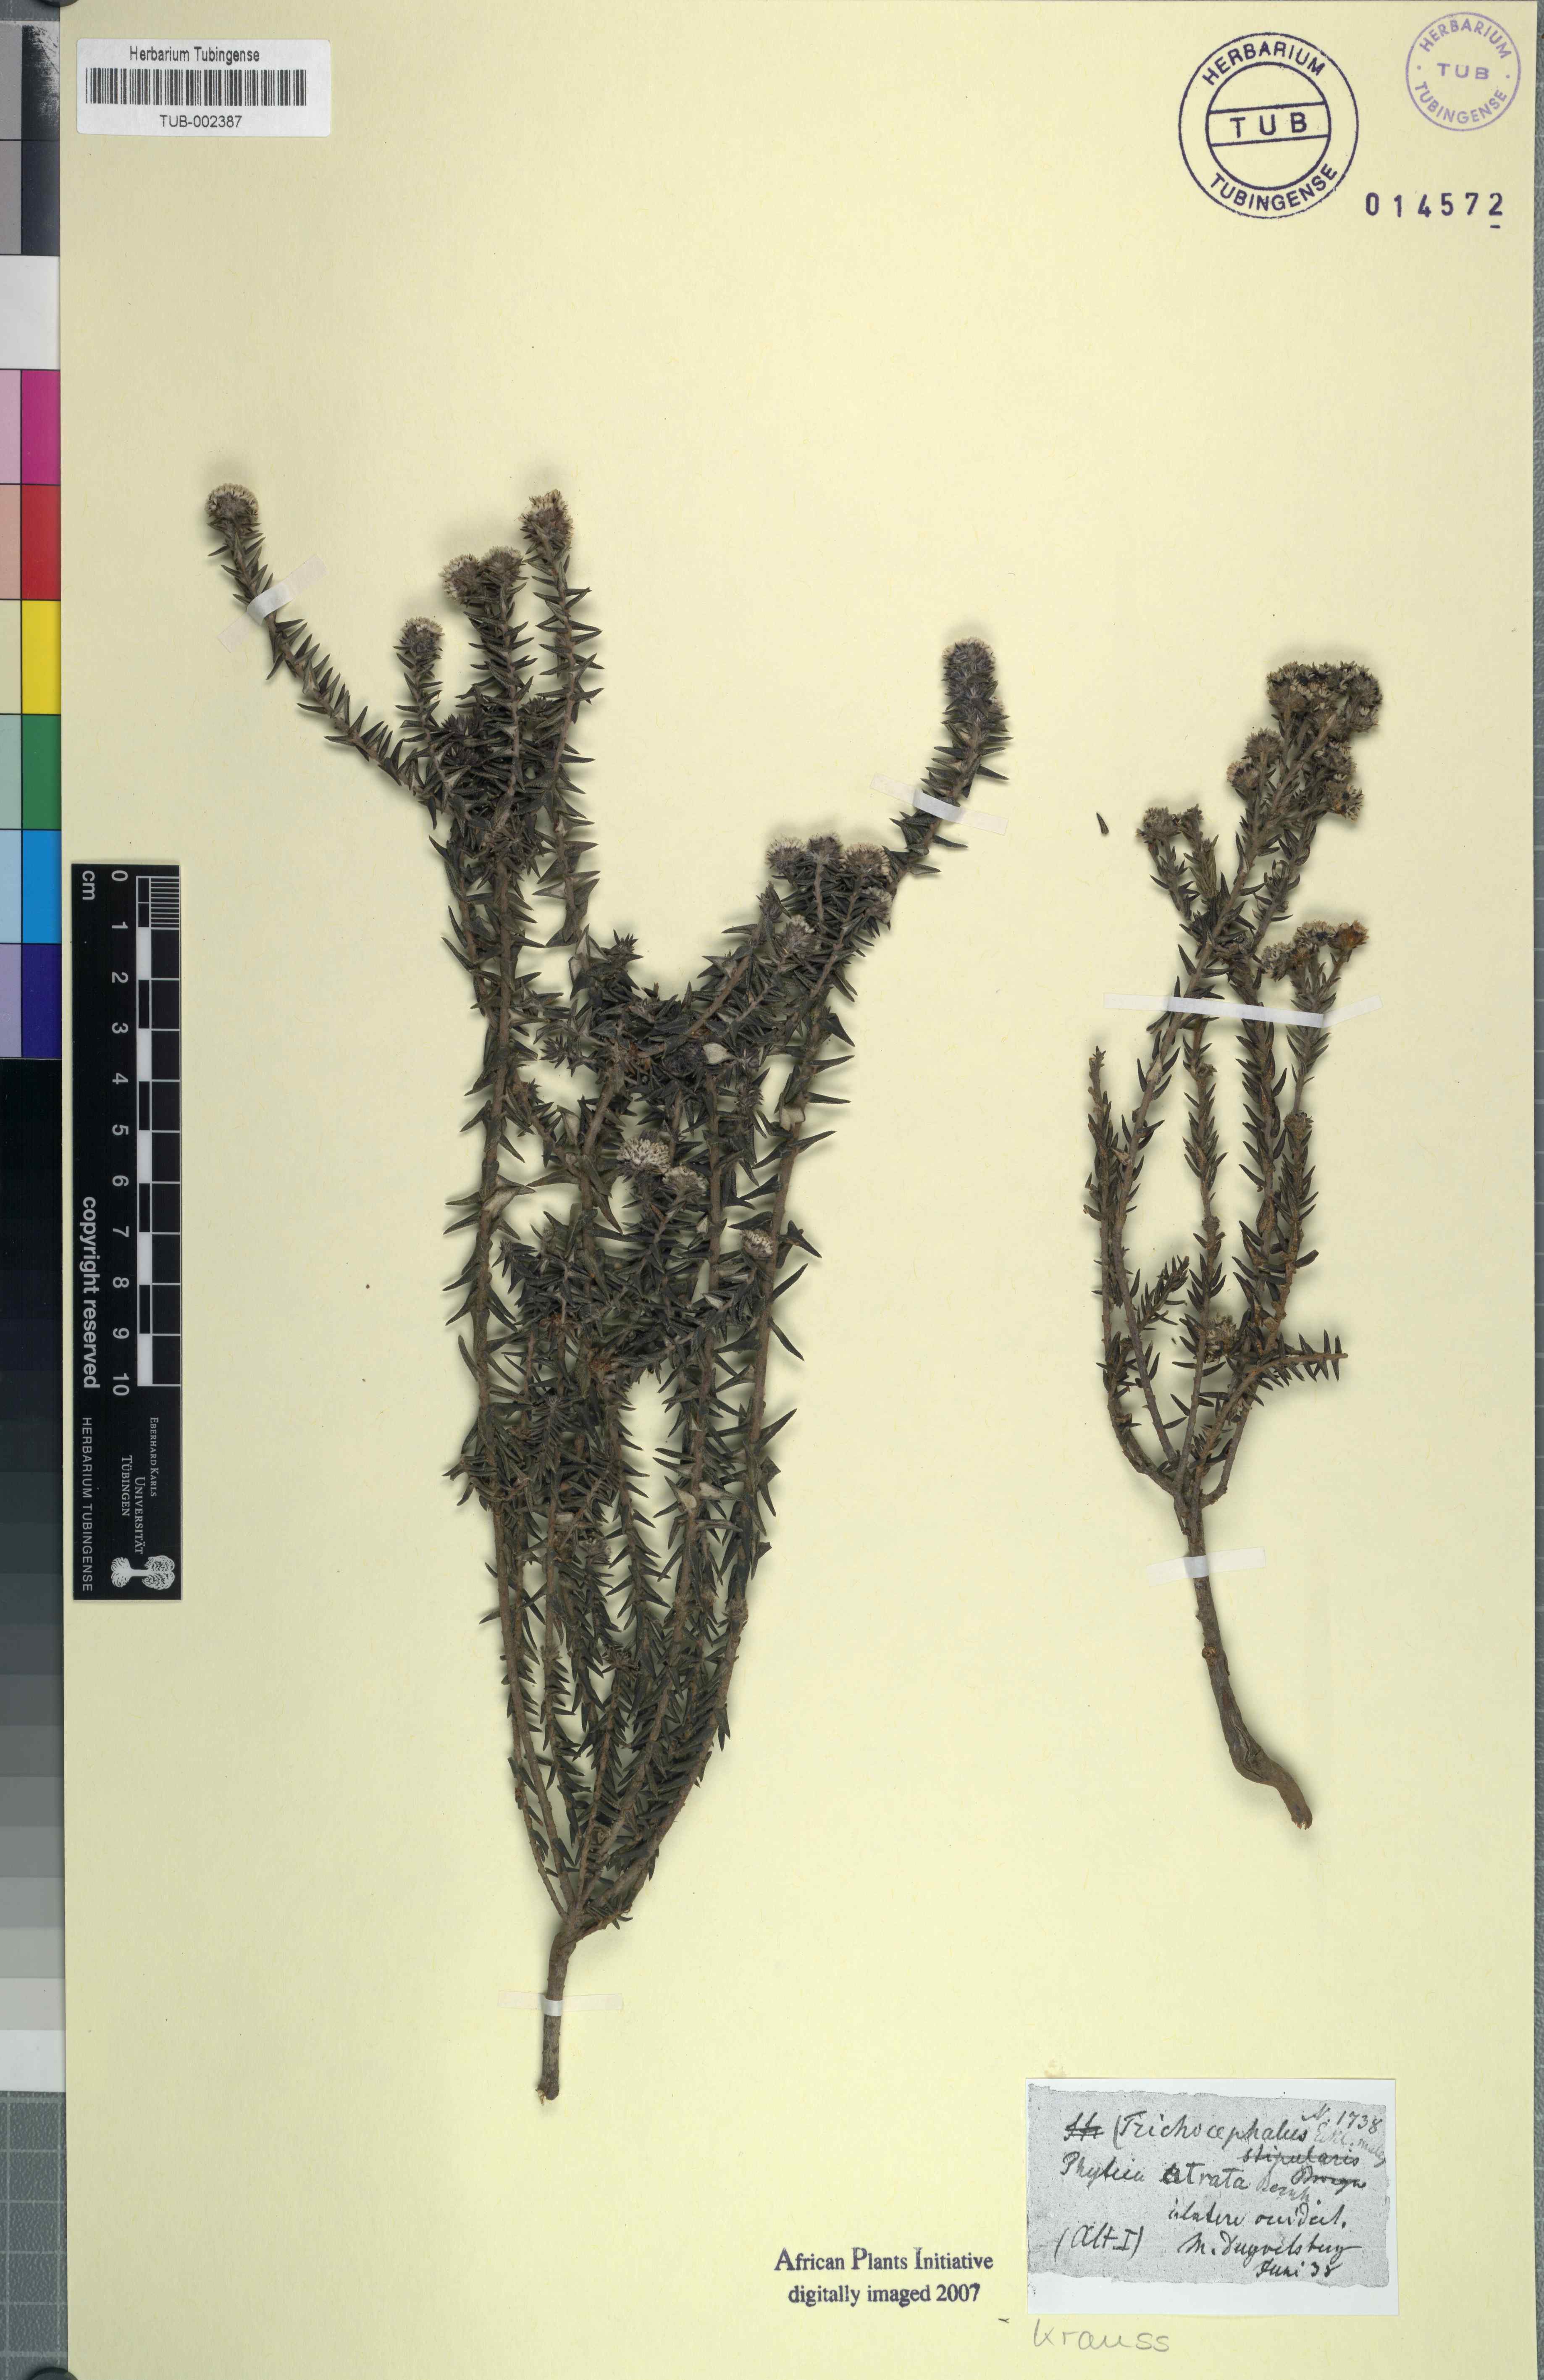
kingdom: Plantae
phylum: Tracheophyta
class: Magnoliopsida
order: Rosales
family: Rhamnaceae
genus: Phylica
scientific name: Phylica callosa
